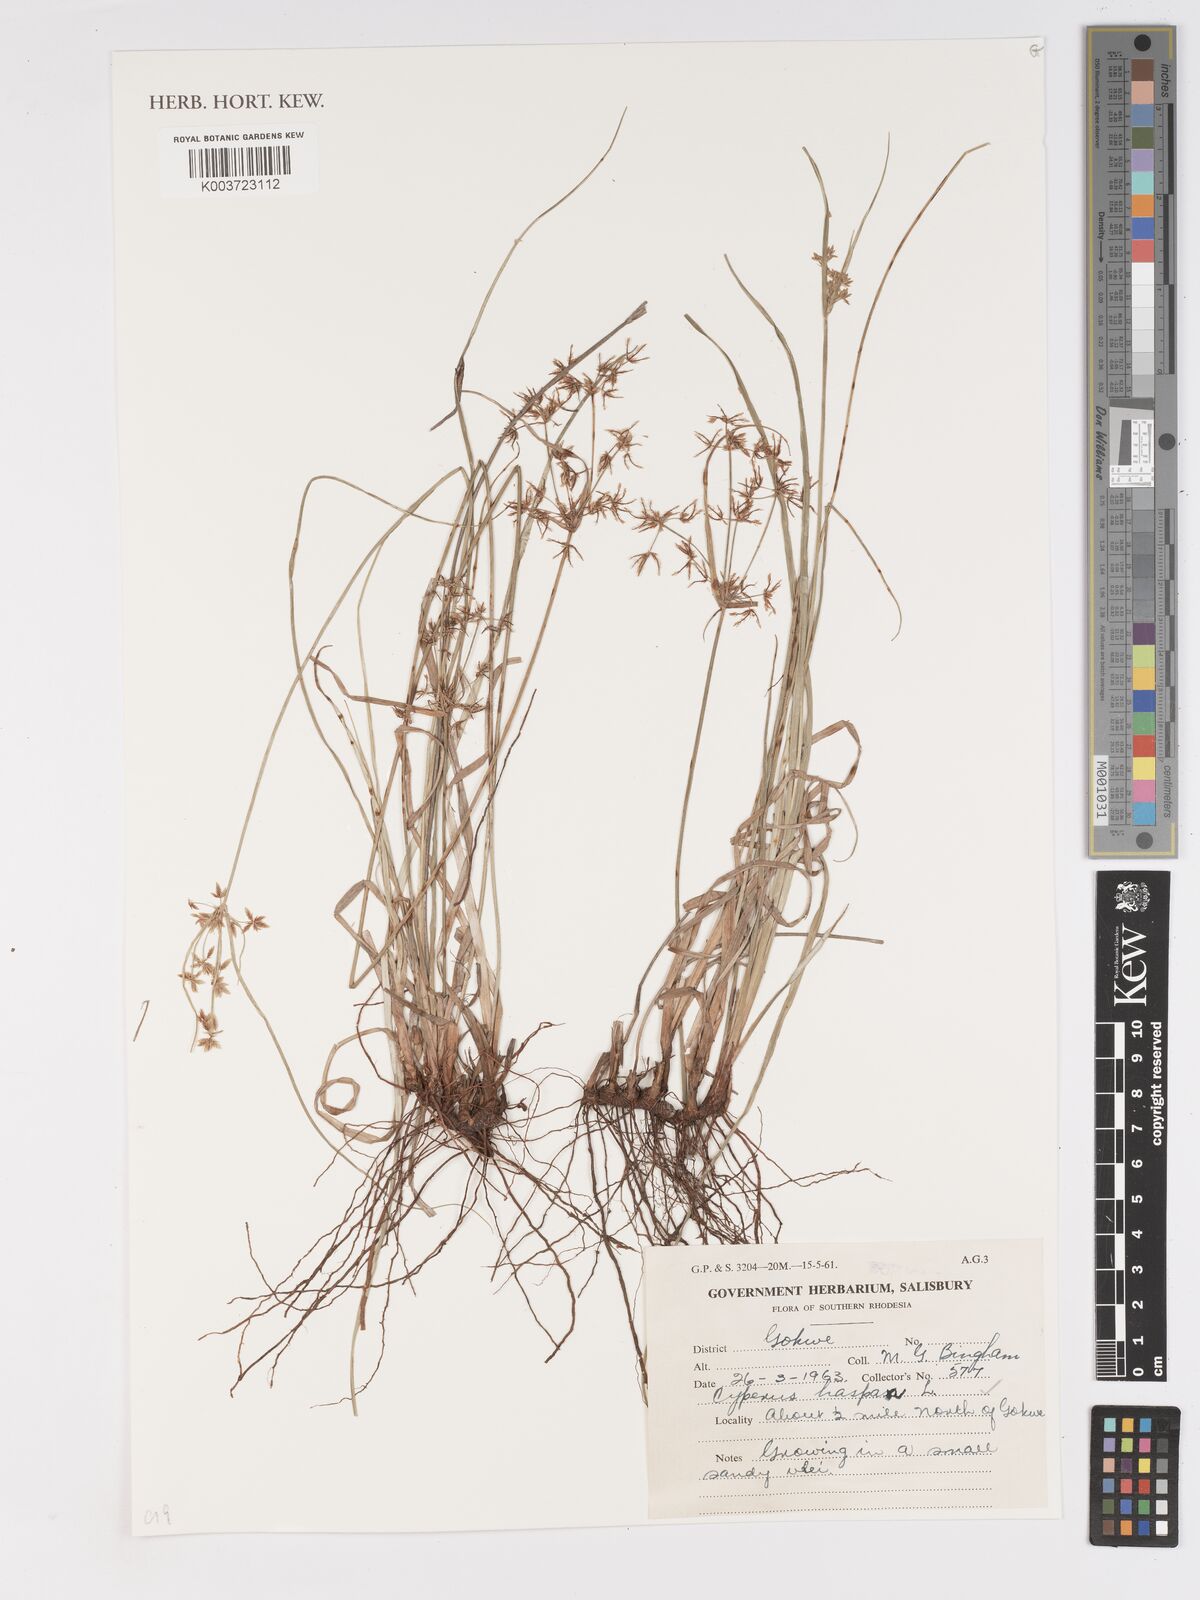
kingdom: Plantae
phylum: Tracheophyta
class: Liliopsida
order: Poales
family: Cyperaceae
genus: Cyperus
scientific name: Cyperus haspan
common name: Haspan flatsedge
